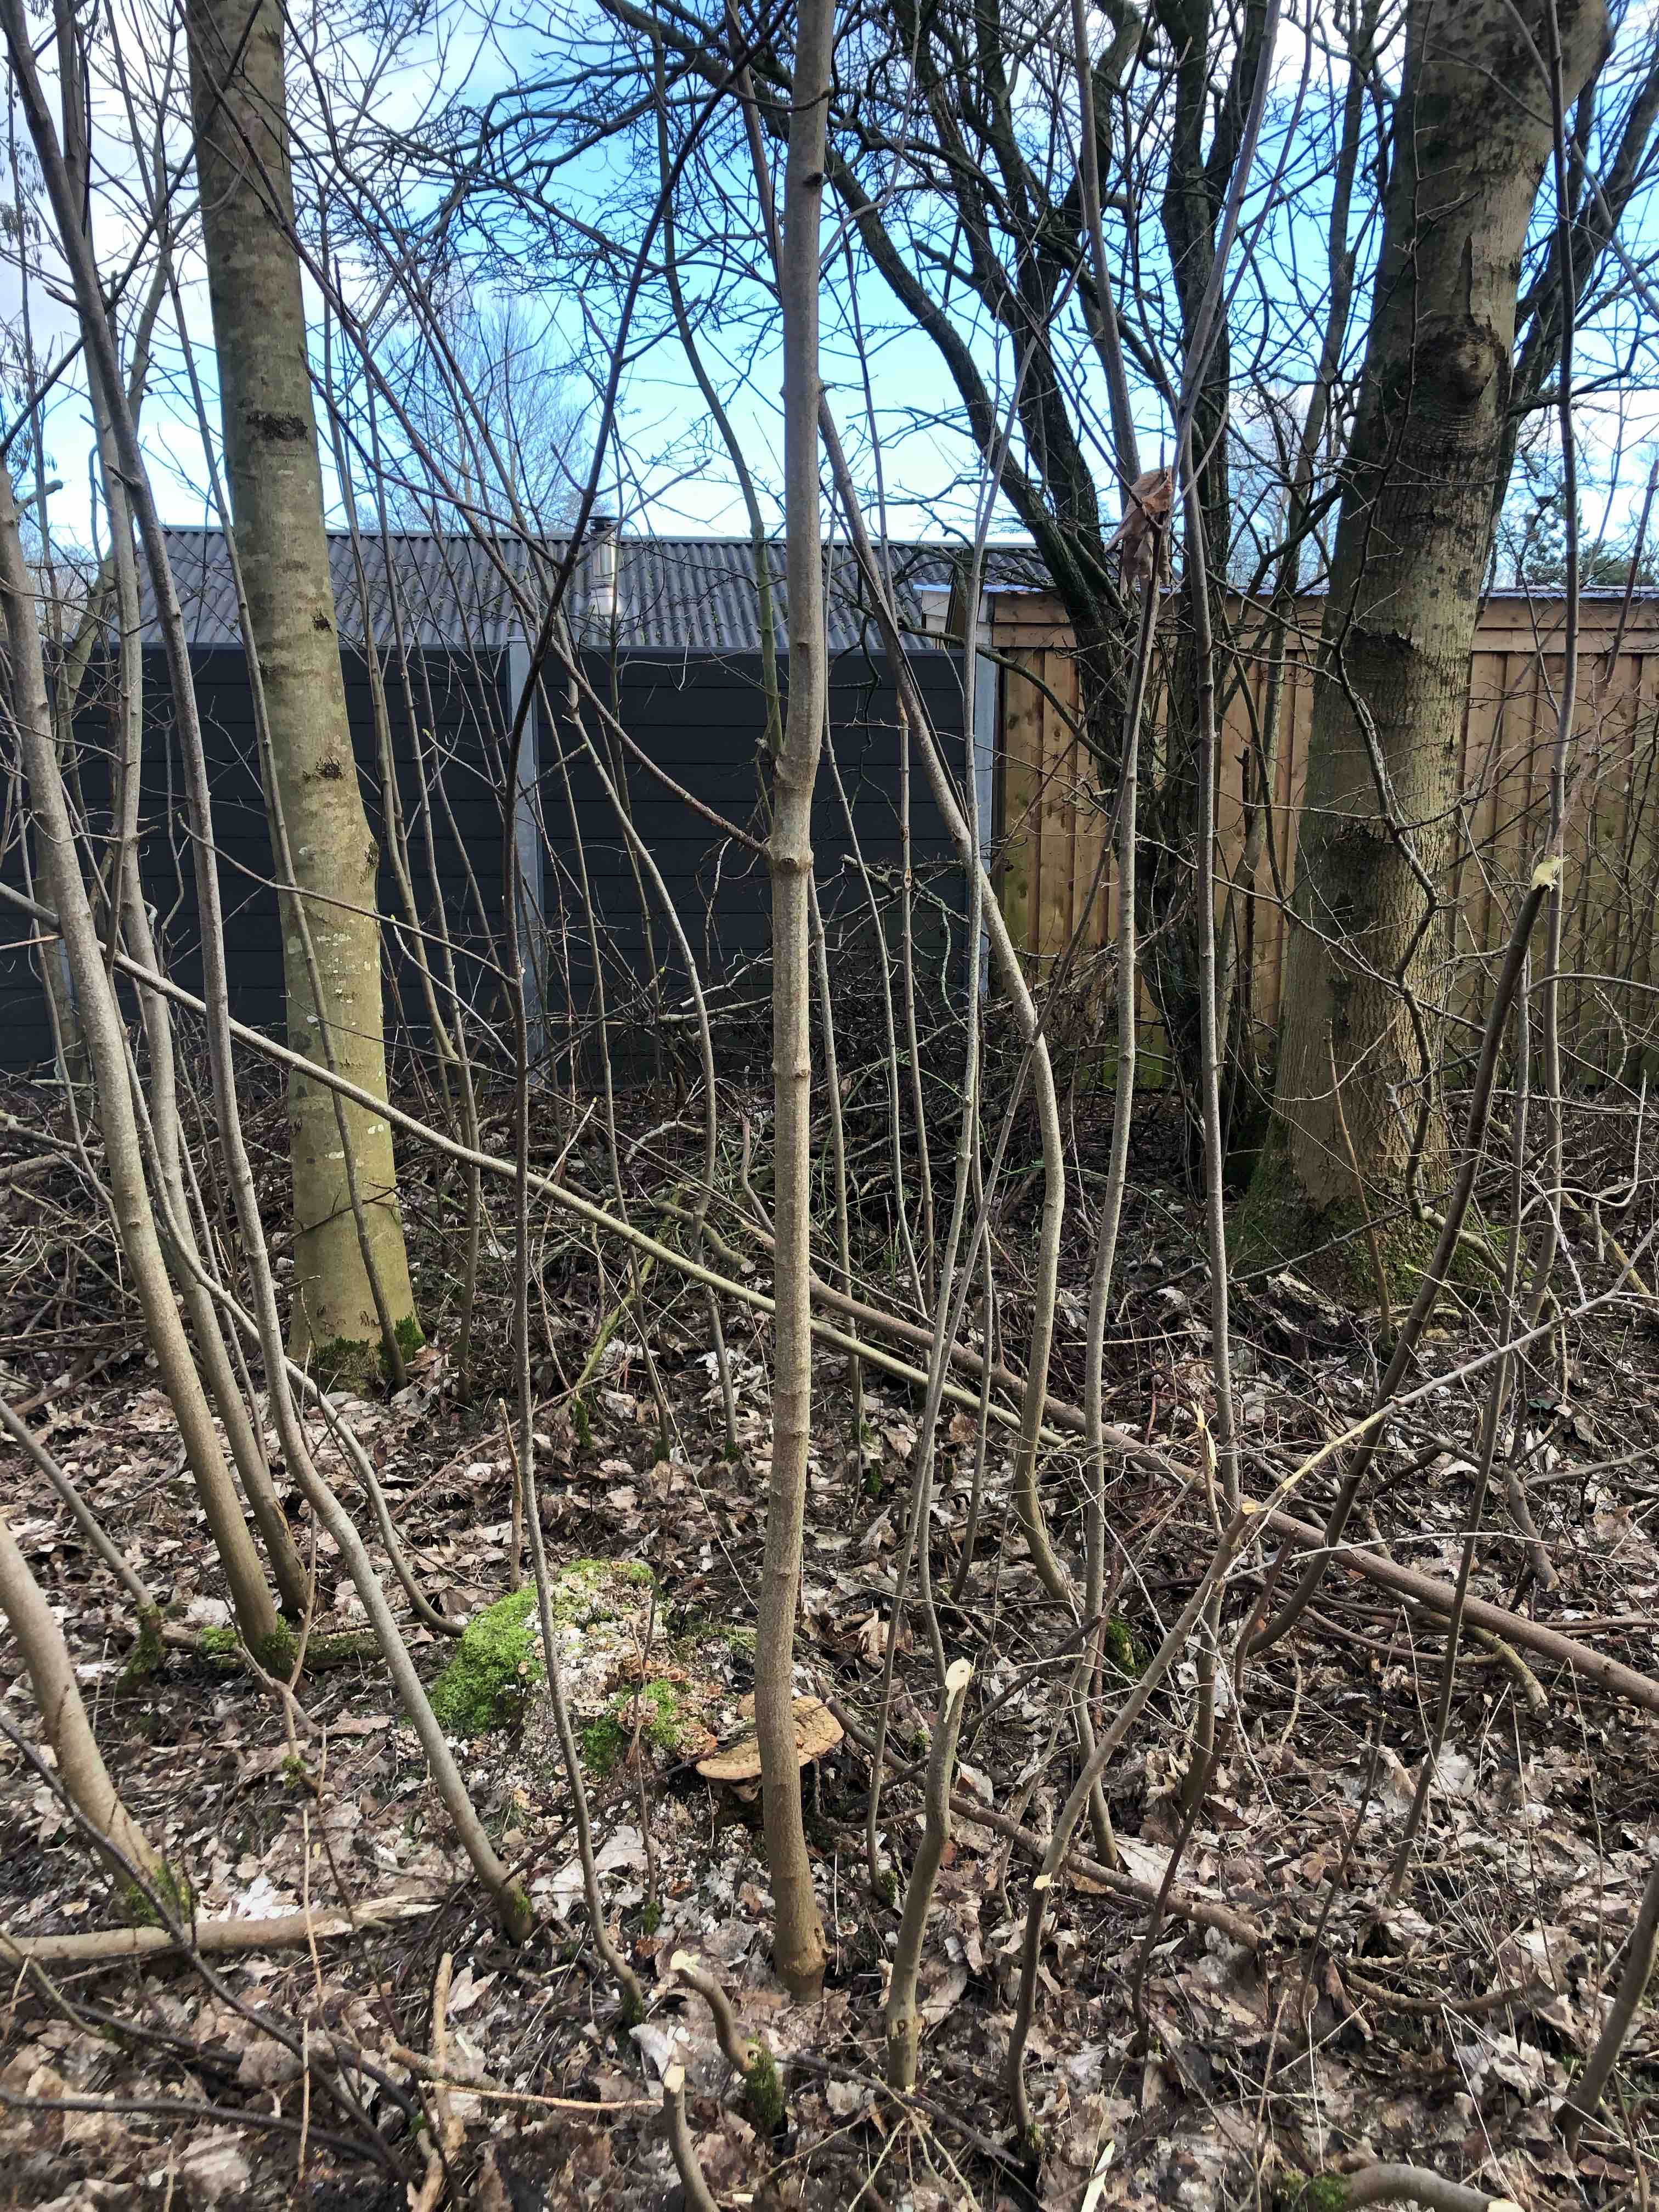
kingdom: Fungi
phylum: Basidiomycota
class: Agaricomycetes
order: Polyporales
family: Polyporaceae
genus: Ganoderma
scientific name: Ganoderma applanatum
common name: flad lakporesvamp
